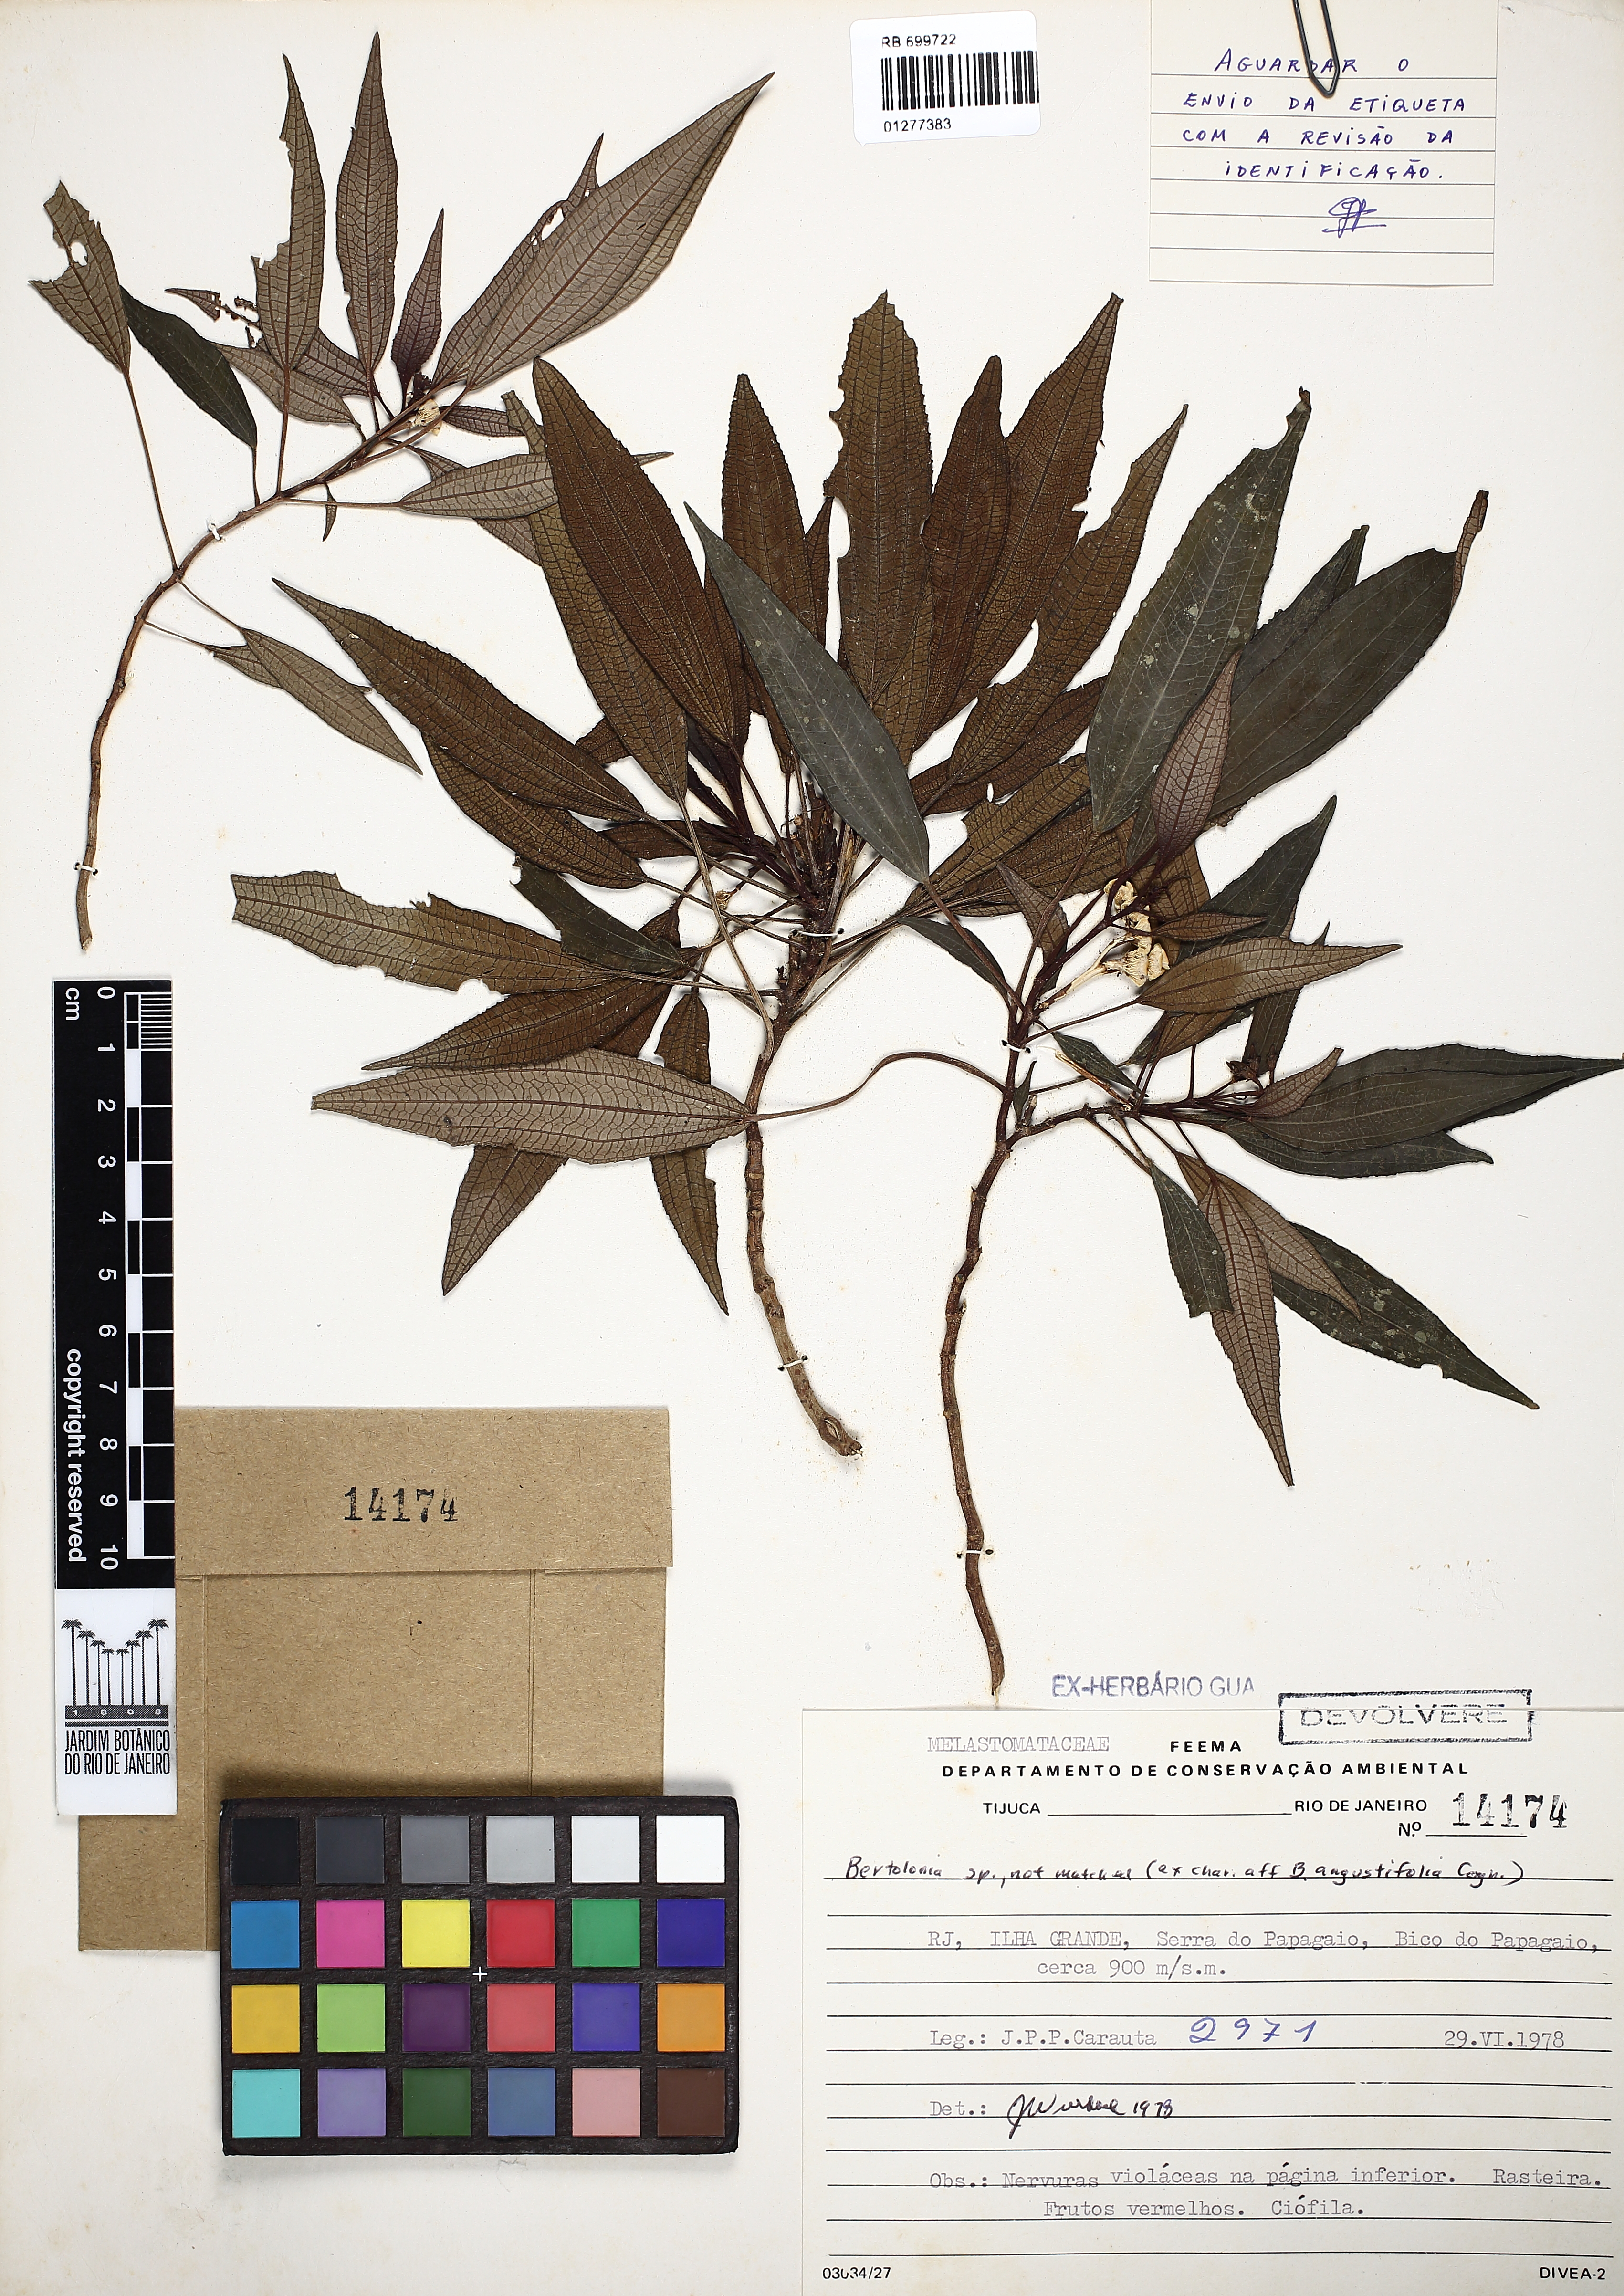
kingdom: Plantae
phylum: Tracheophyta
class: Magnoliopsida
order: Myrtales
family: Melastomataceae
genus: Bertolonia
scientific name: Bertolonia
